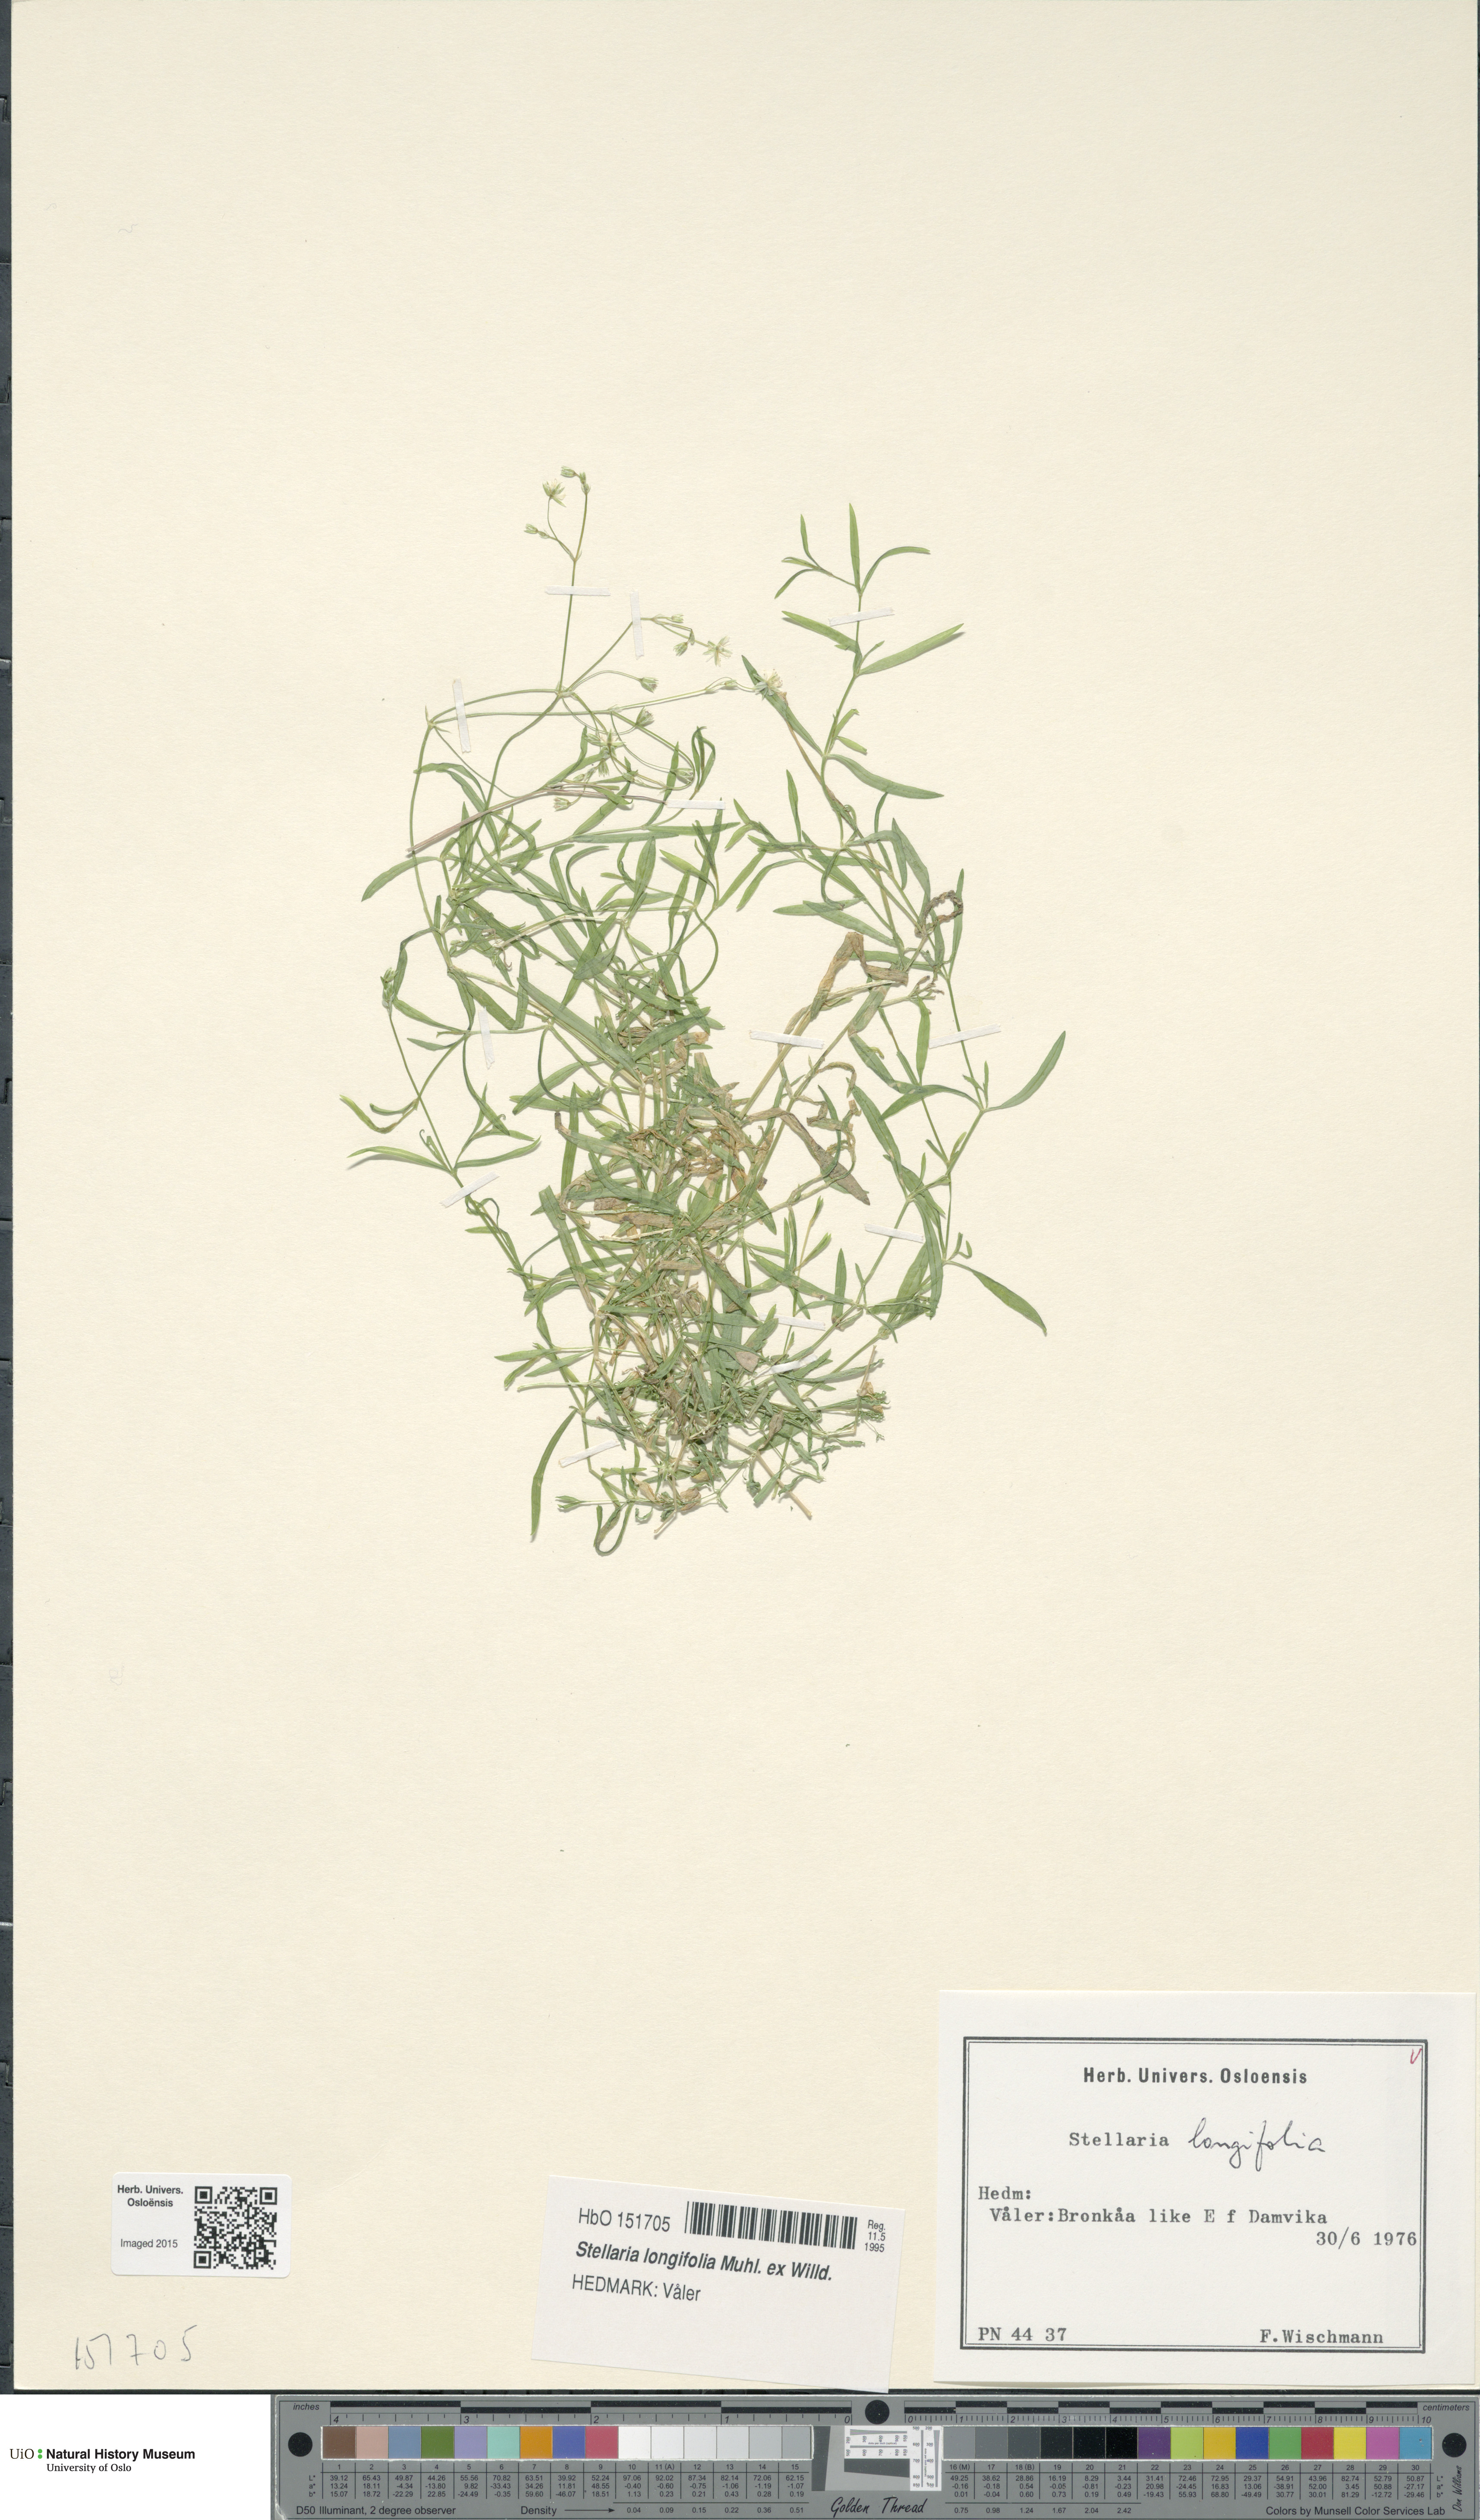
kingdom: Plantae
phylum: Tracheophyta
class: Magnoliopsida
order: Caryophyllales
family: Caryophyllaceae
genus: Stellaria
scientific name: Stellaria longifolia
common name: Long-leaved chickweed
